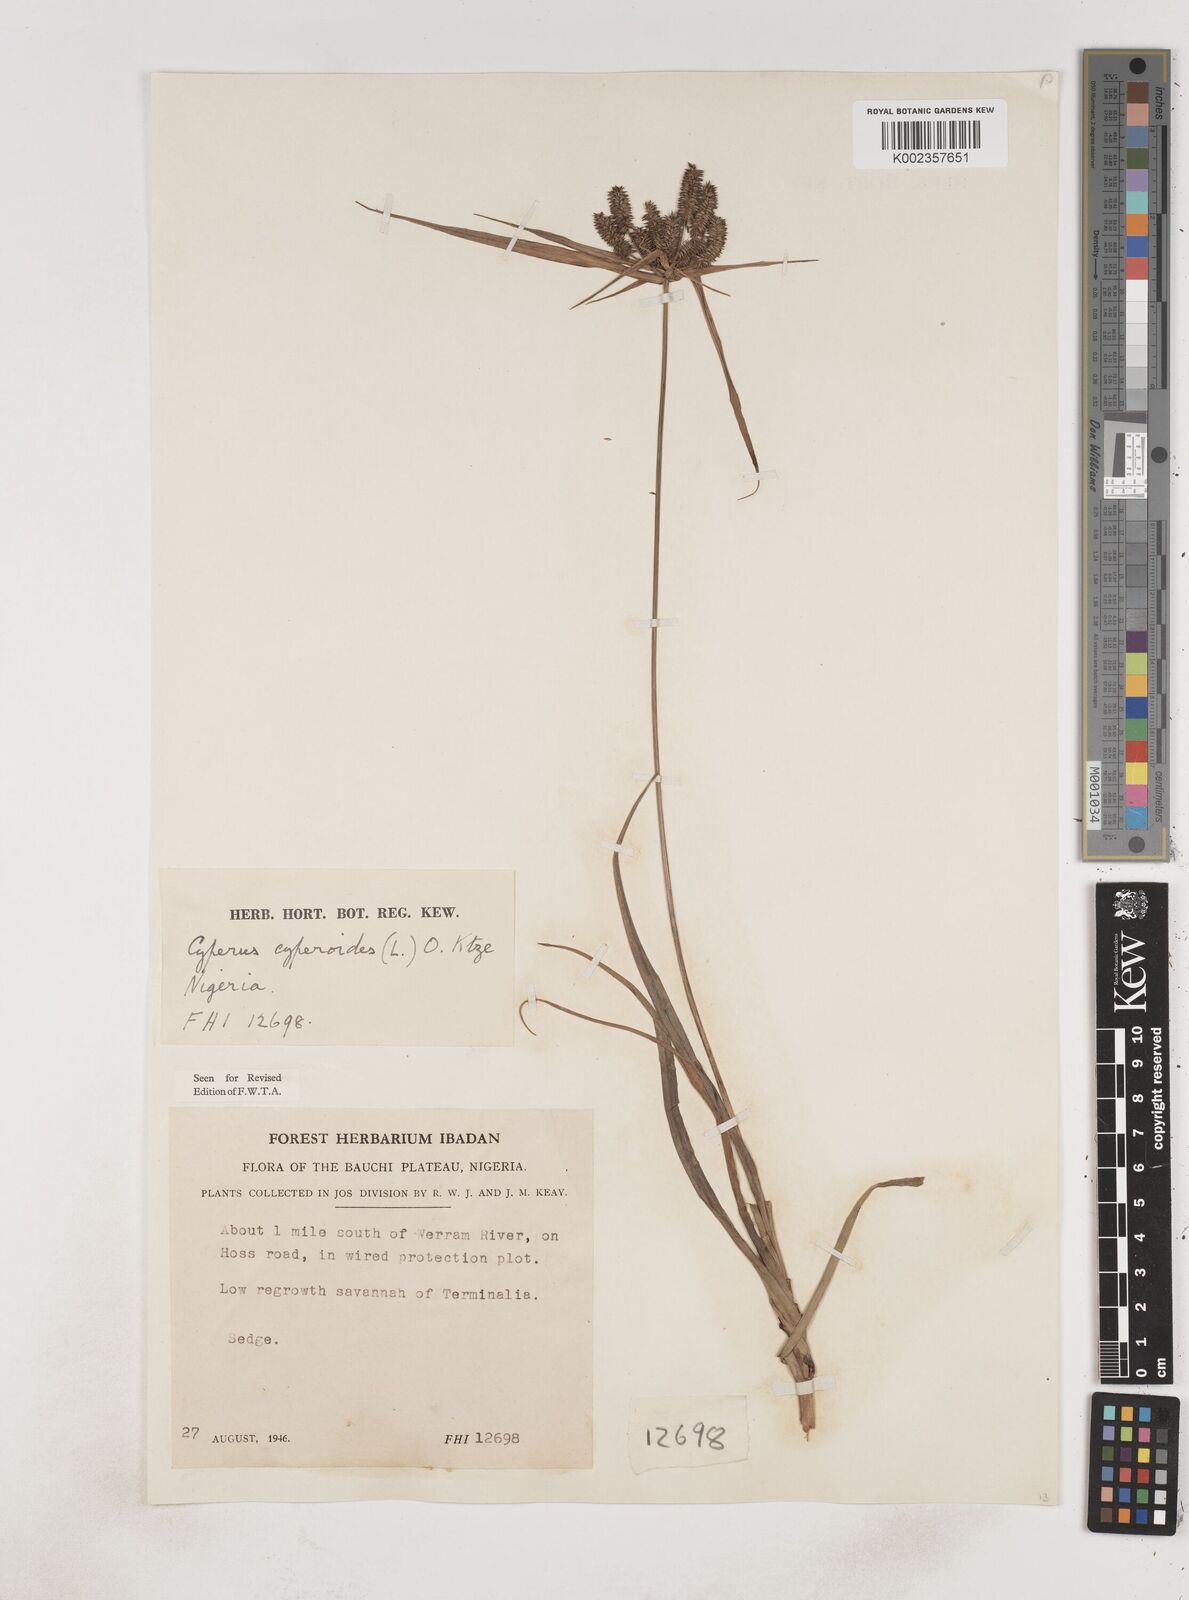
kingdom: Plantae
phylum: Tracheophyta
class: Liliopsida
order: Poales
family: Cyperaceae
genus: Cyperus
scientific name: Cyperus cyperoides
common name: Pacific island flat sedge
